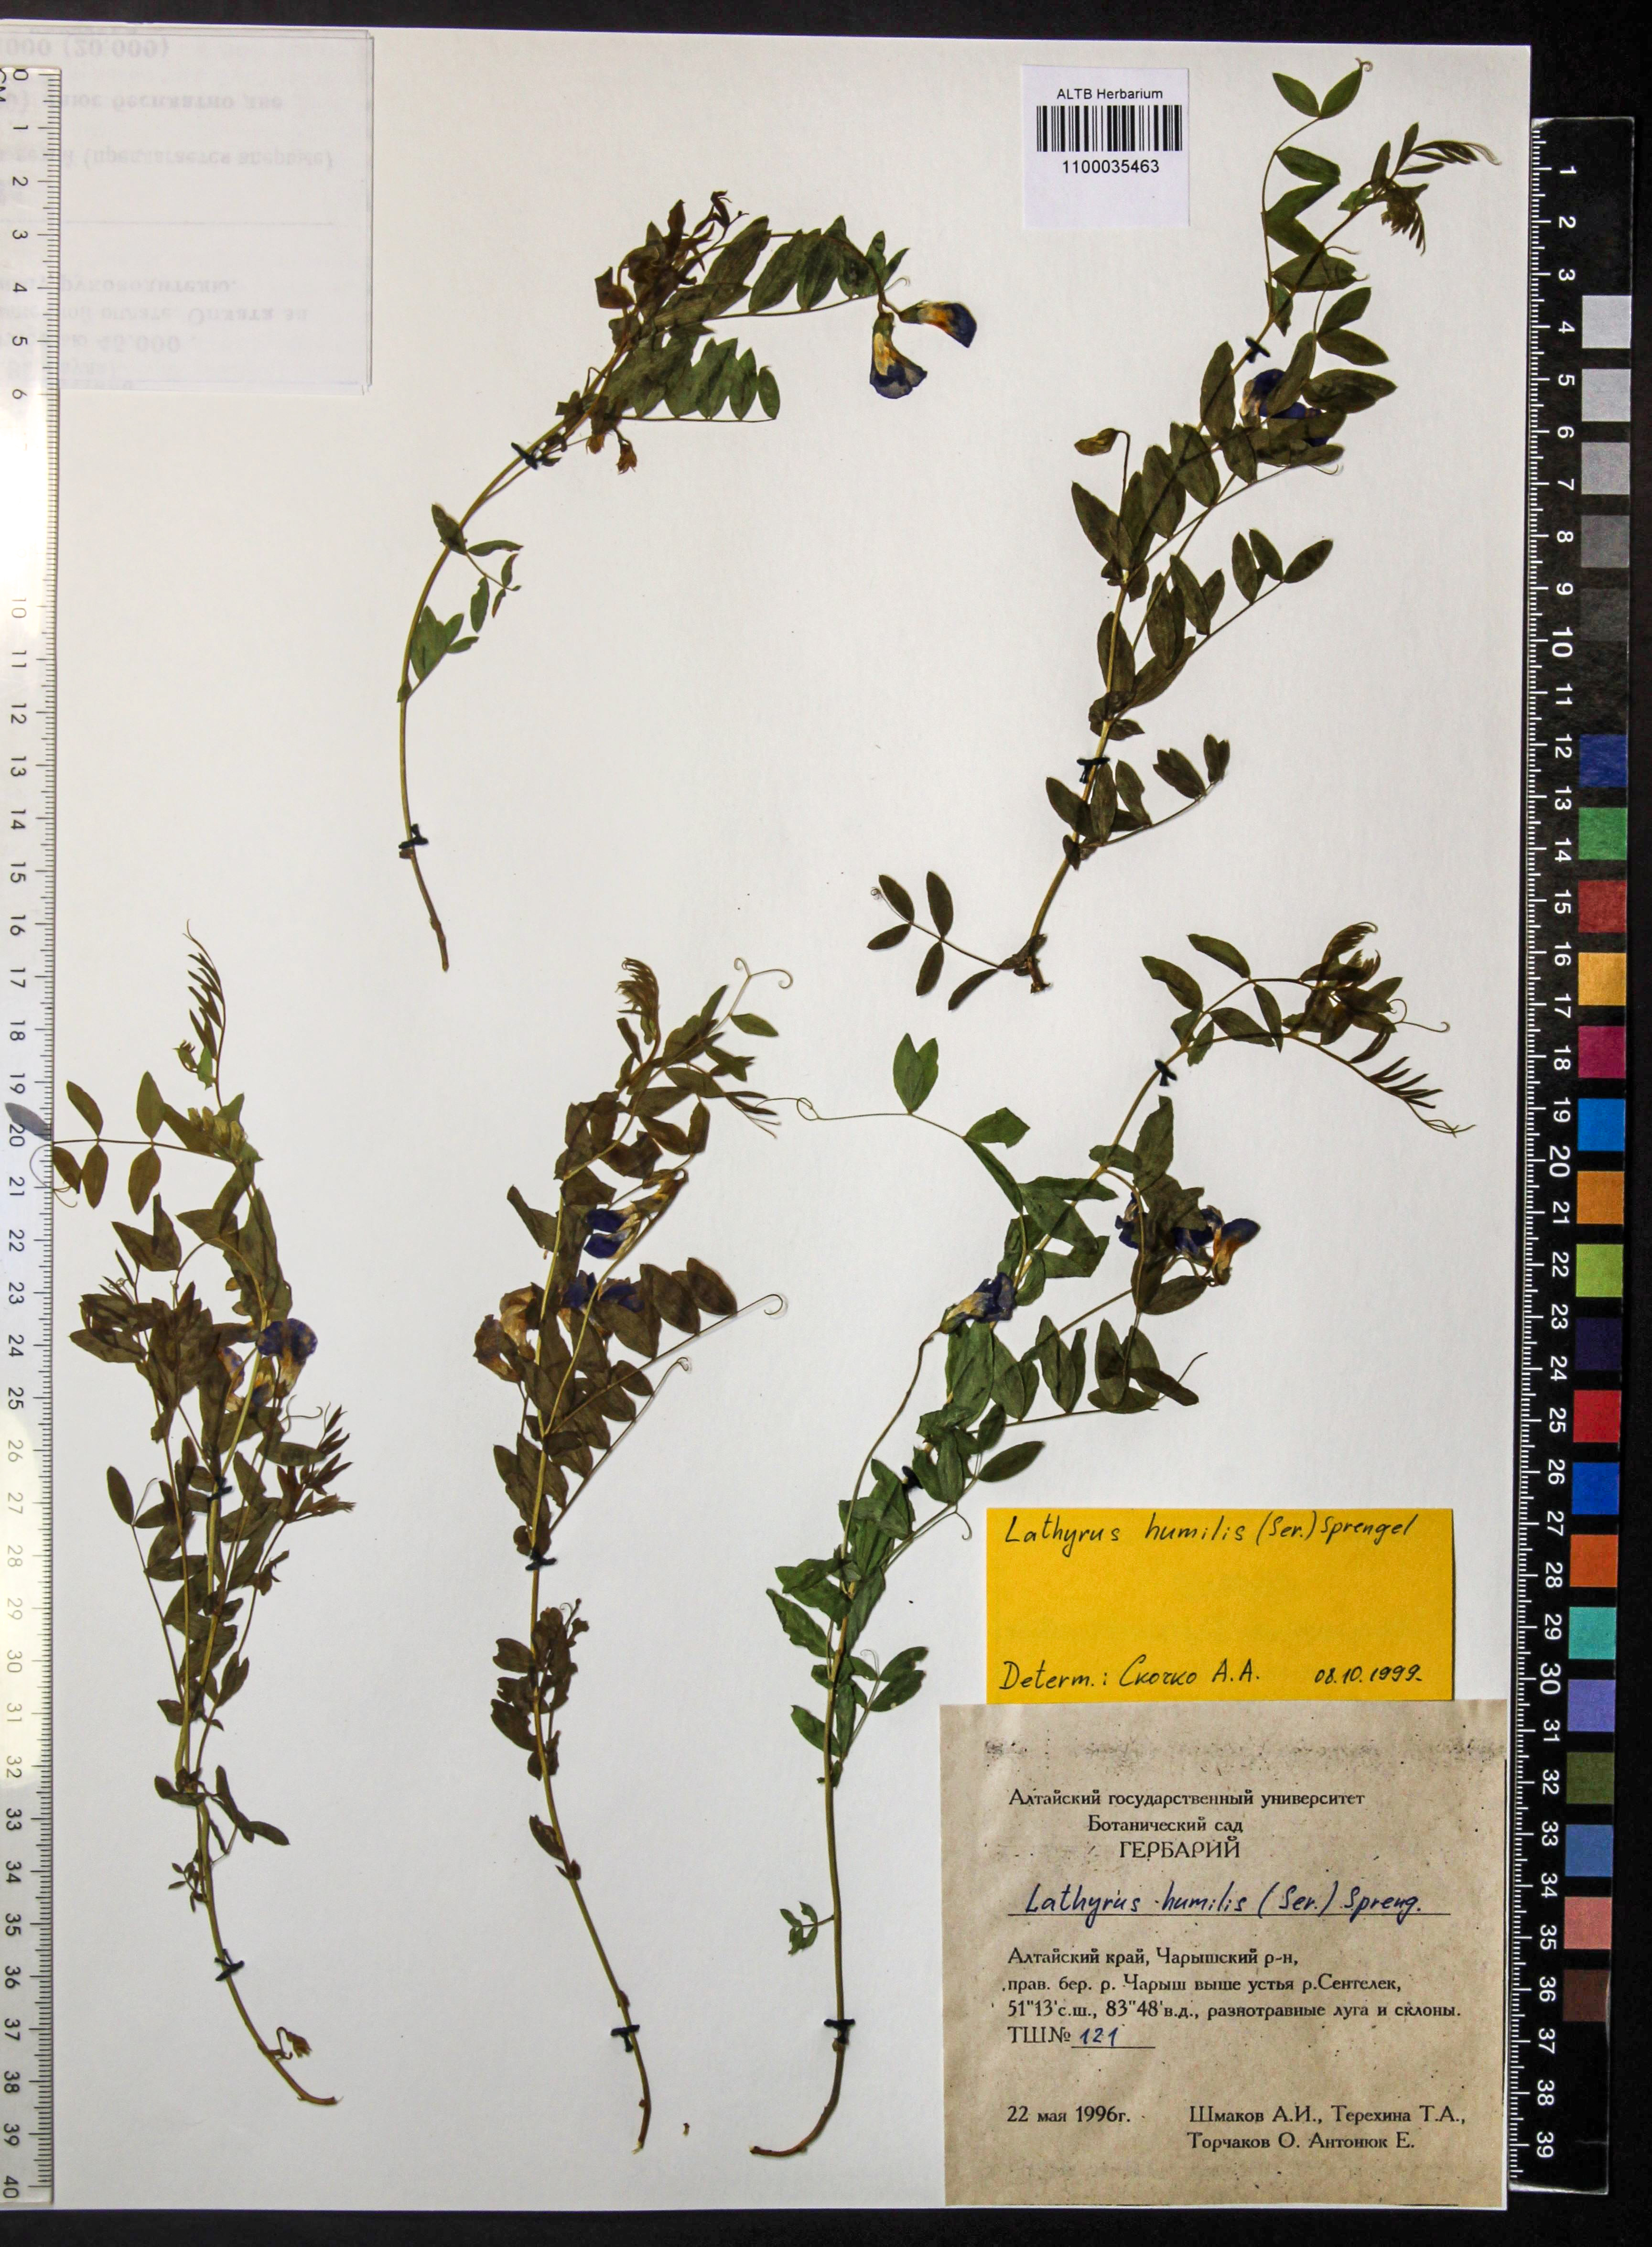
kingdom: Plantae
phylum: Tracheophyta
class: Magnoliopsida
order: Fabales
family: Fabaceae
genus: Lathyrus
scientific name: Lathyrus humilis
